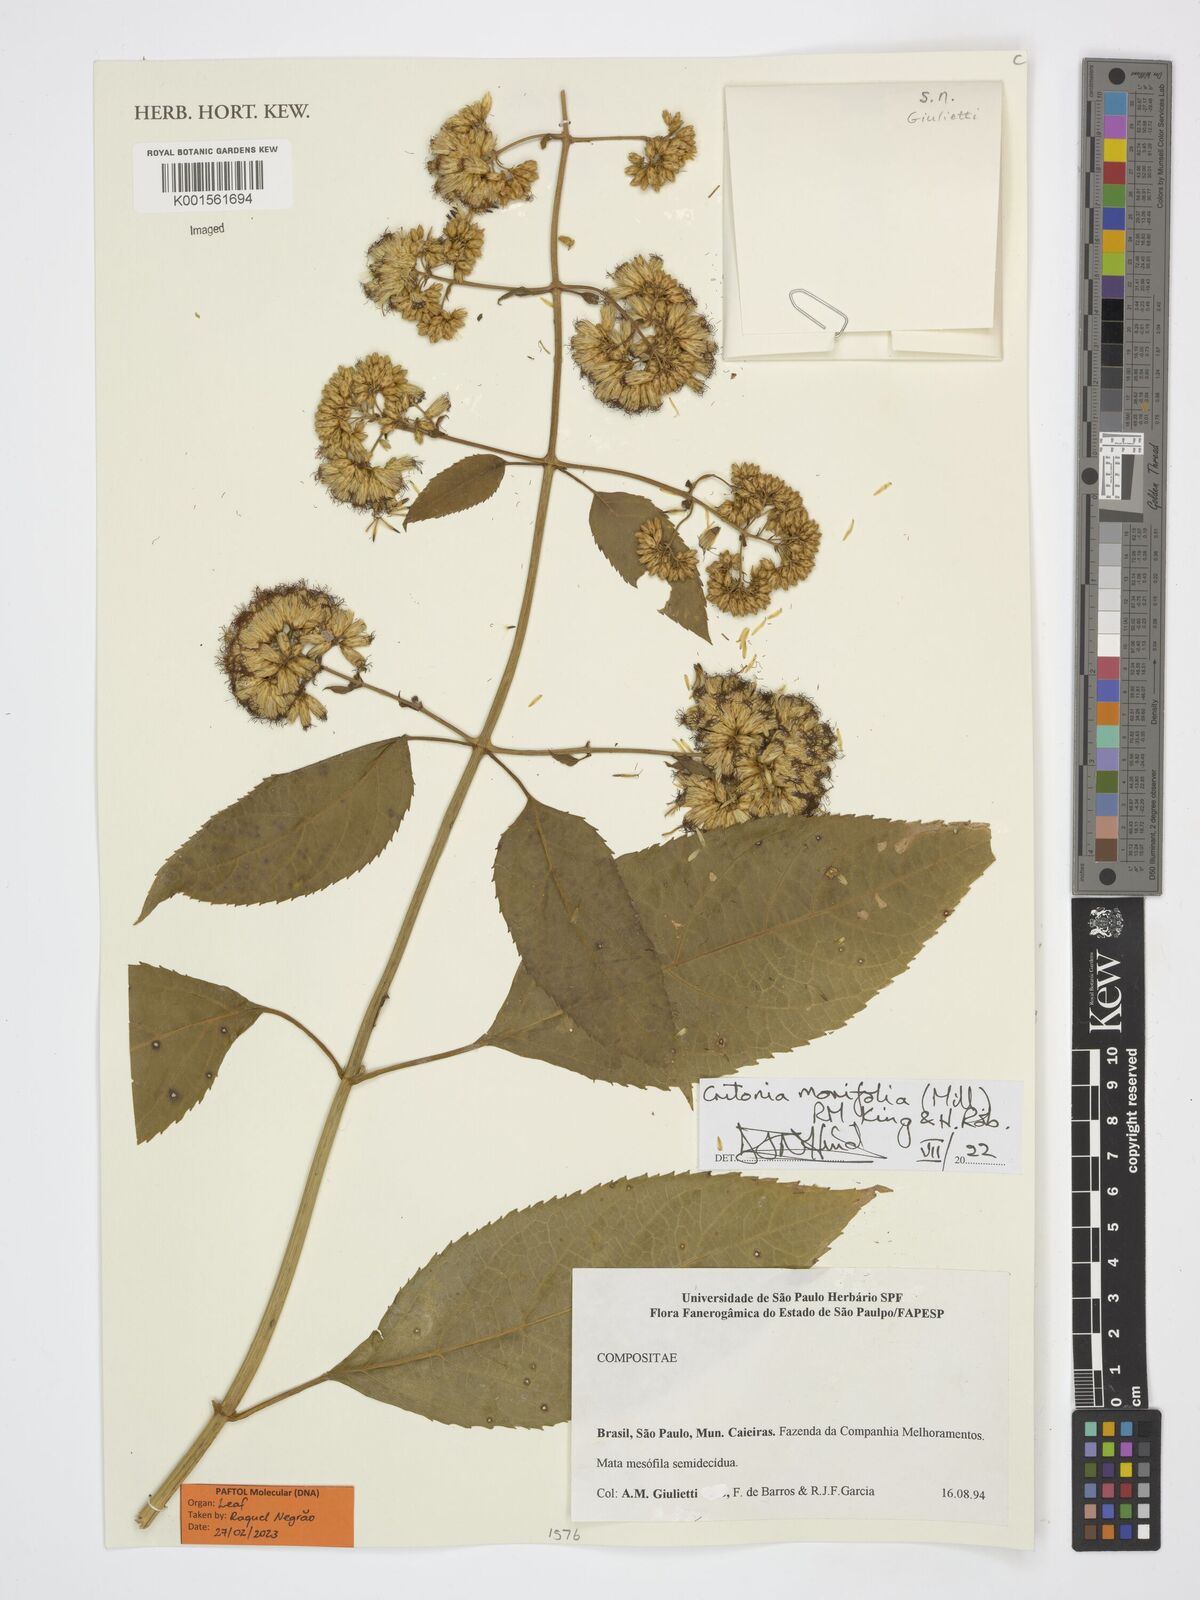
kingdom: Plantae
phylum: Tracheophyta
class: Magnoliopsida
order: Asterales
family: Asteraceae
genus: Critonia
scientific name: Critonia morifolia
